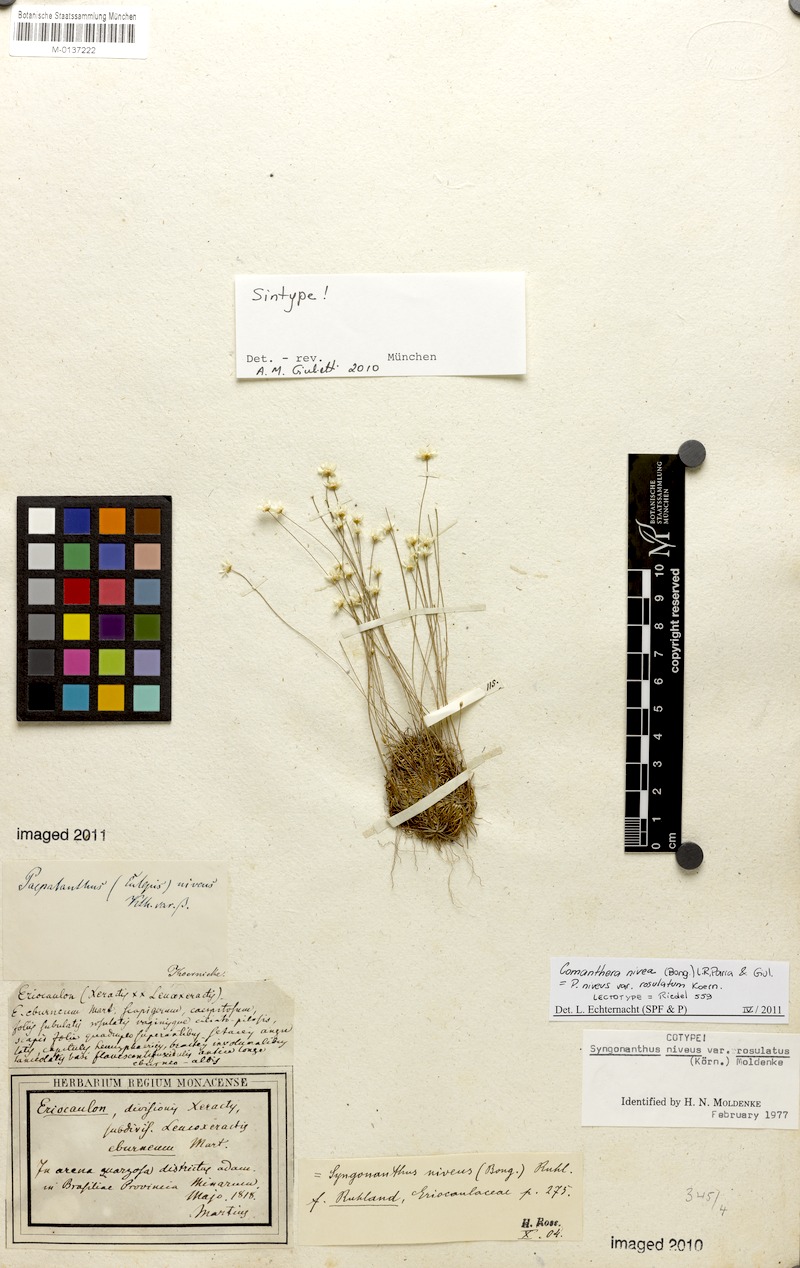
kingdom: Plantae
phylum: Tracheophyta
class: Liliopsida
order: Poales
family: Eriocaulaceae
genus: Comanthera
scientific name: Comanthera nivea
